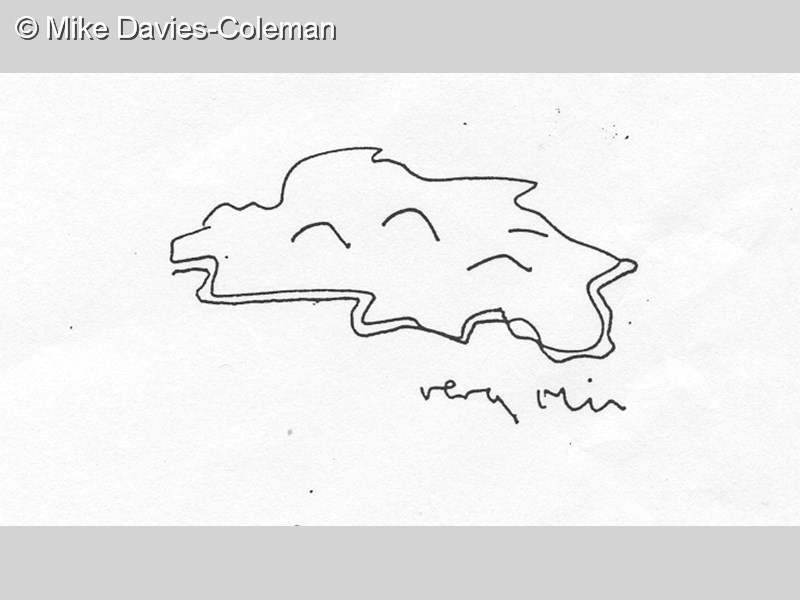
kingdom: Animalia
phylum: Chordata
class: Ascidiacea
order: Aplousobranchia
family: Didemnidae
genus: Didemnum
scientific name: Didemnum
